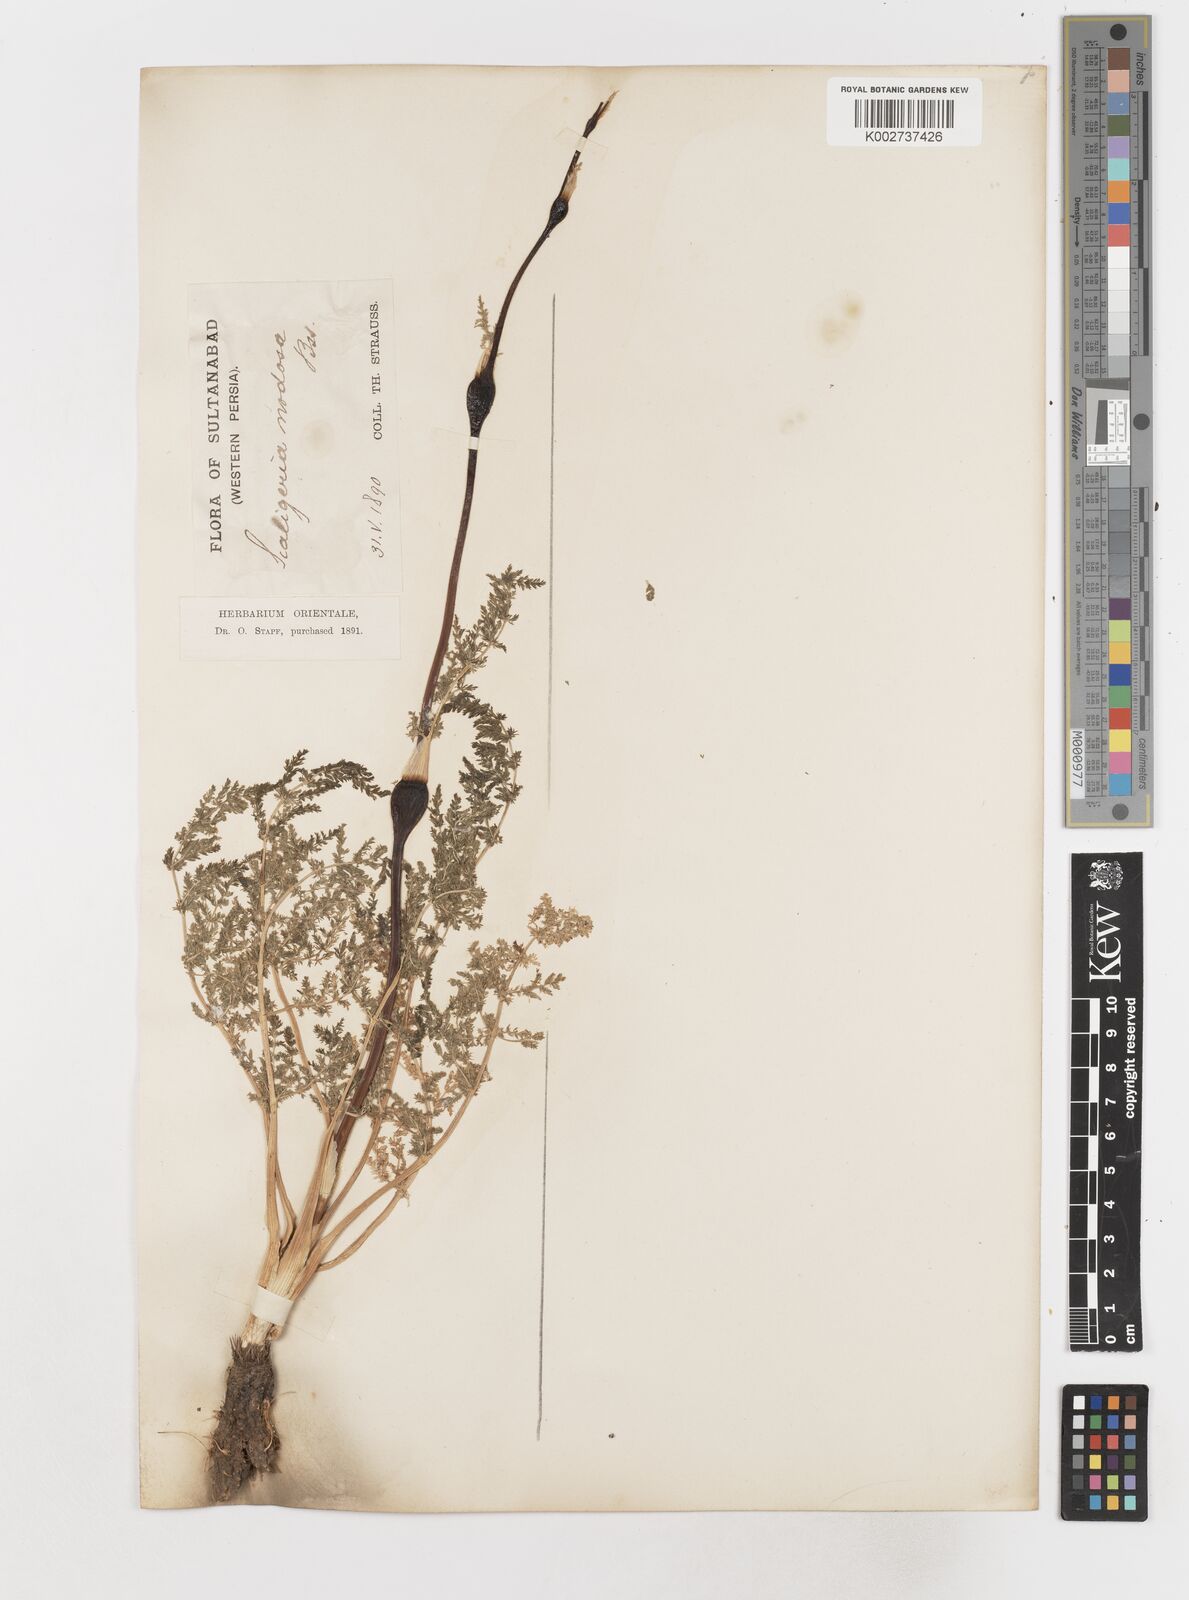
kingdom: Plantae
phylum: Tracheophyta
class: Magnoliopsida
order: Apiales
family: Apiaceae
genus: Elaeosticta
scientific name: Elaeosticta nodosa
